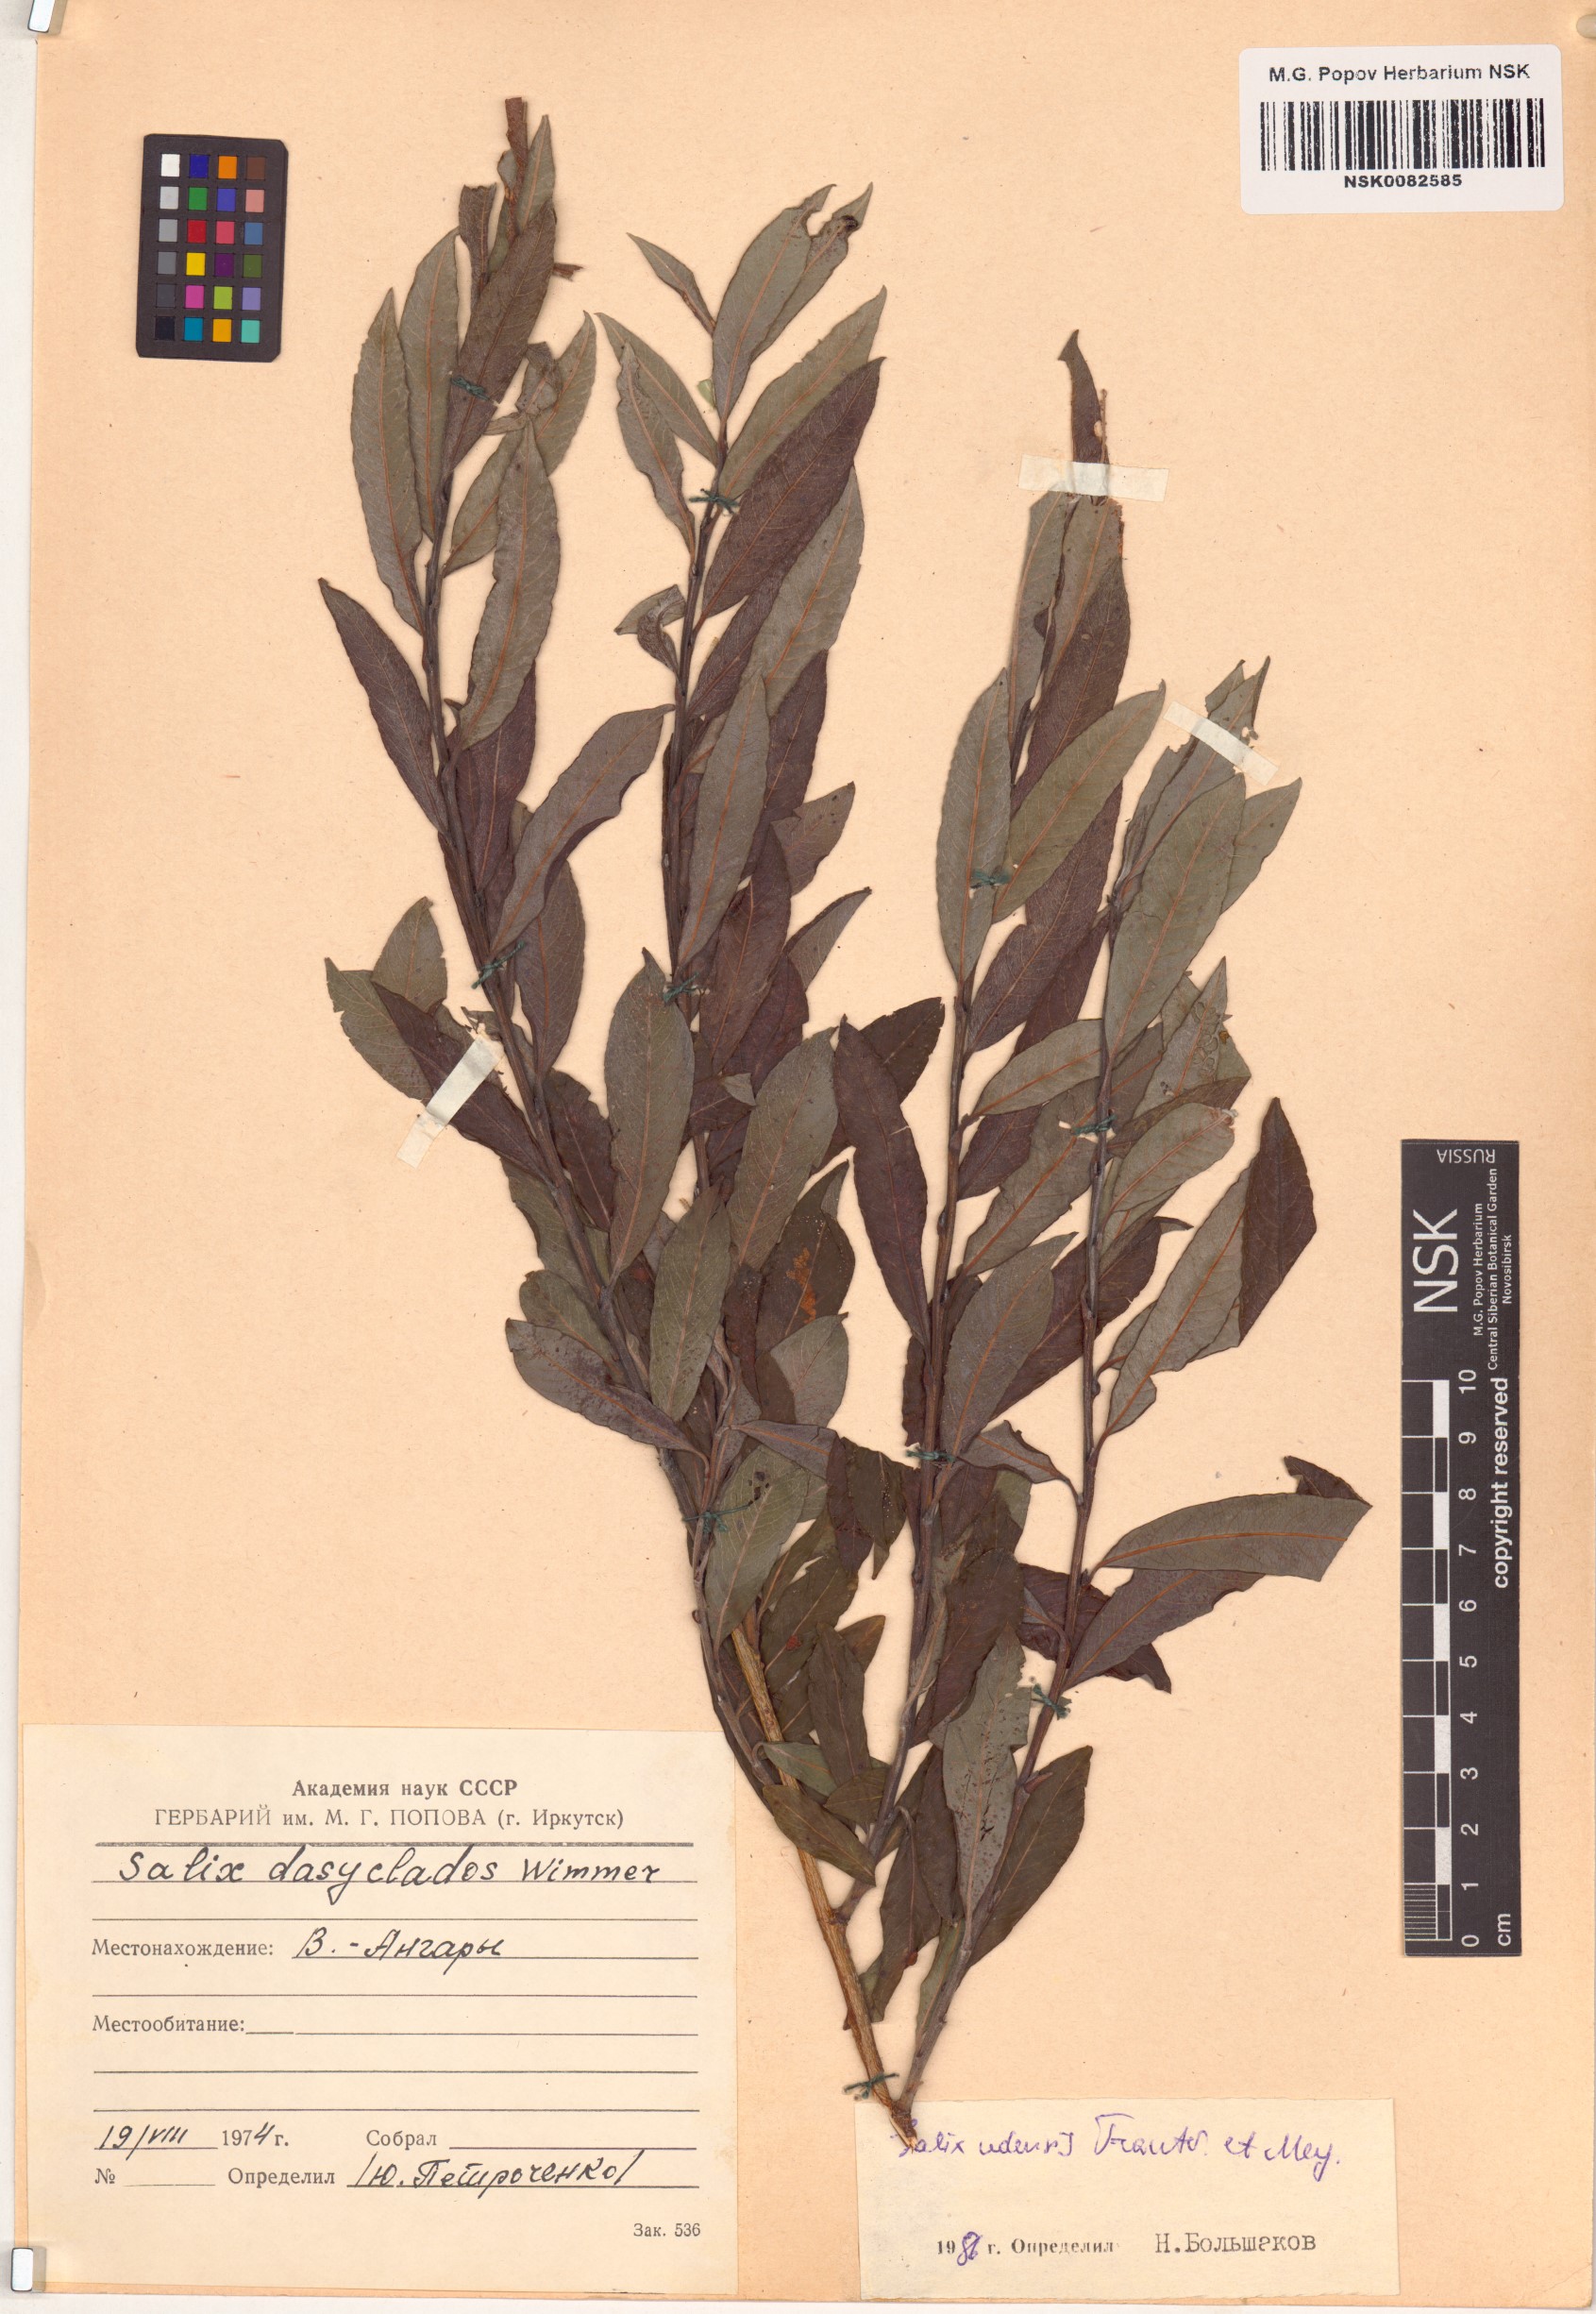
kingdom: Plantae
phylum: Tracheophyta
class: Magnoliopsida
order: Malpighiales
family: Salicaceae
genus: Salix
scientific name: Salix udensis
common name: Sachalin willow
